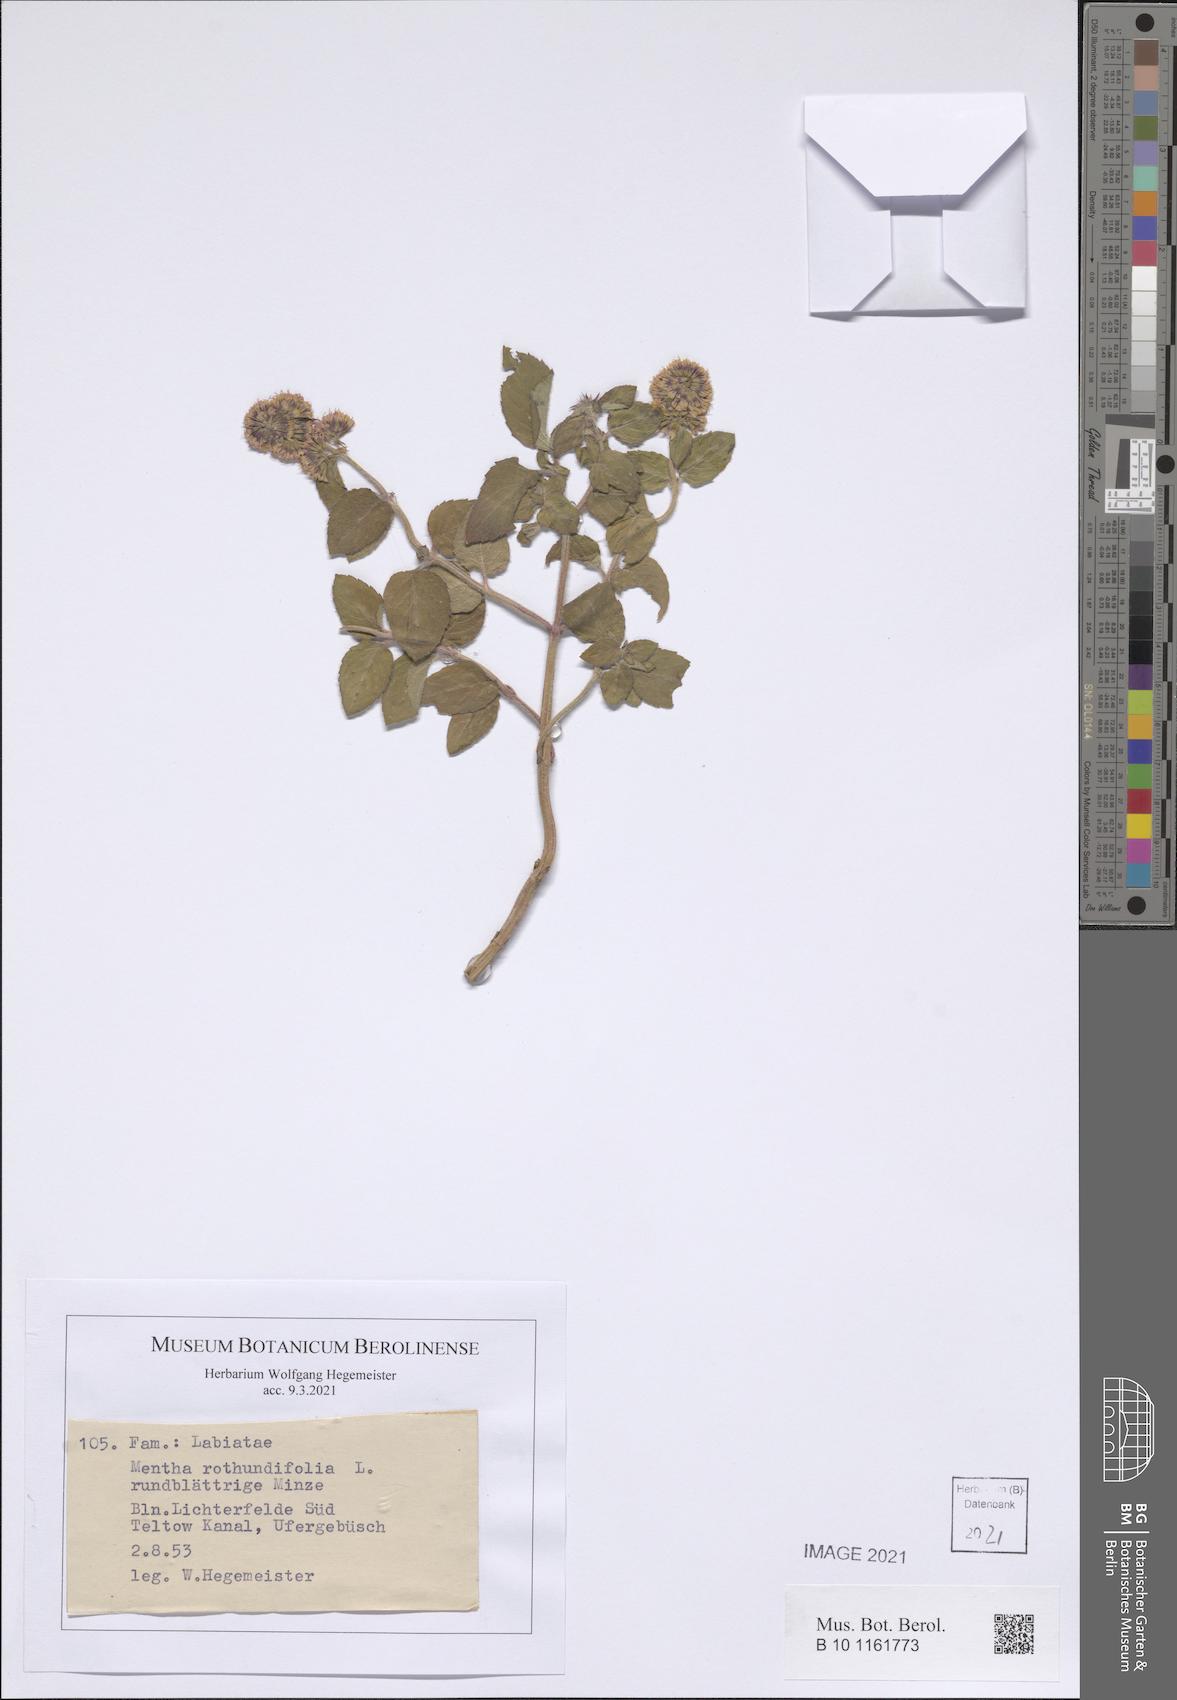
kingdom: Plantae
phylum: Tracheophyta
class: Magnoliopsida
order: Lamiales
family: Lamiaceae
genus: Mentha
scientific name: Mentha rotundifolia
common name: Bigleaf mint
